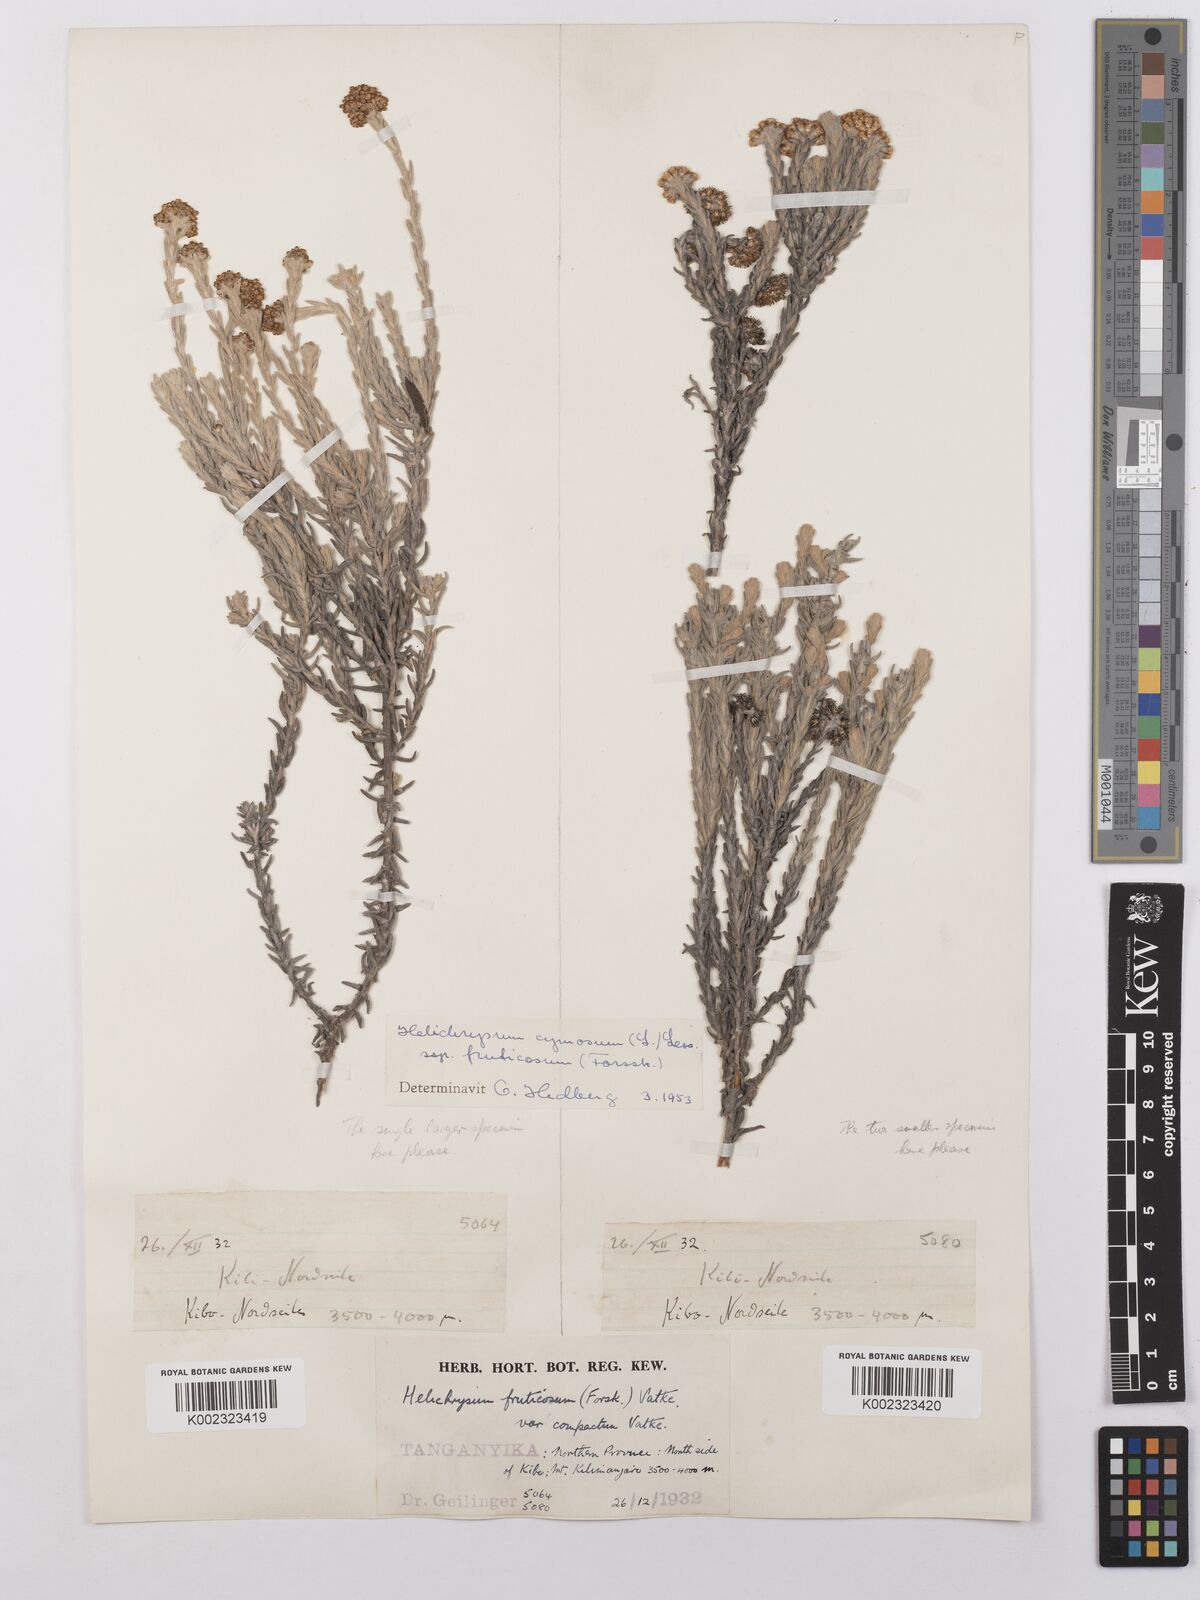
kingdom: Plantae
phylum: Tracheophyta
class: Magnoliopsida
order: Asterales
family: Asteraceae
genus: Helichrysum
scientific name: Helichrysum forskahlii
